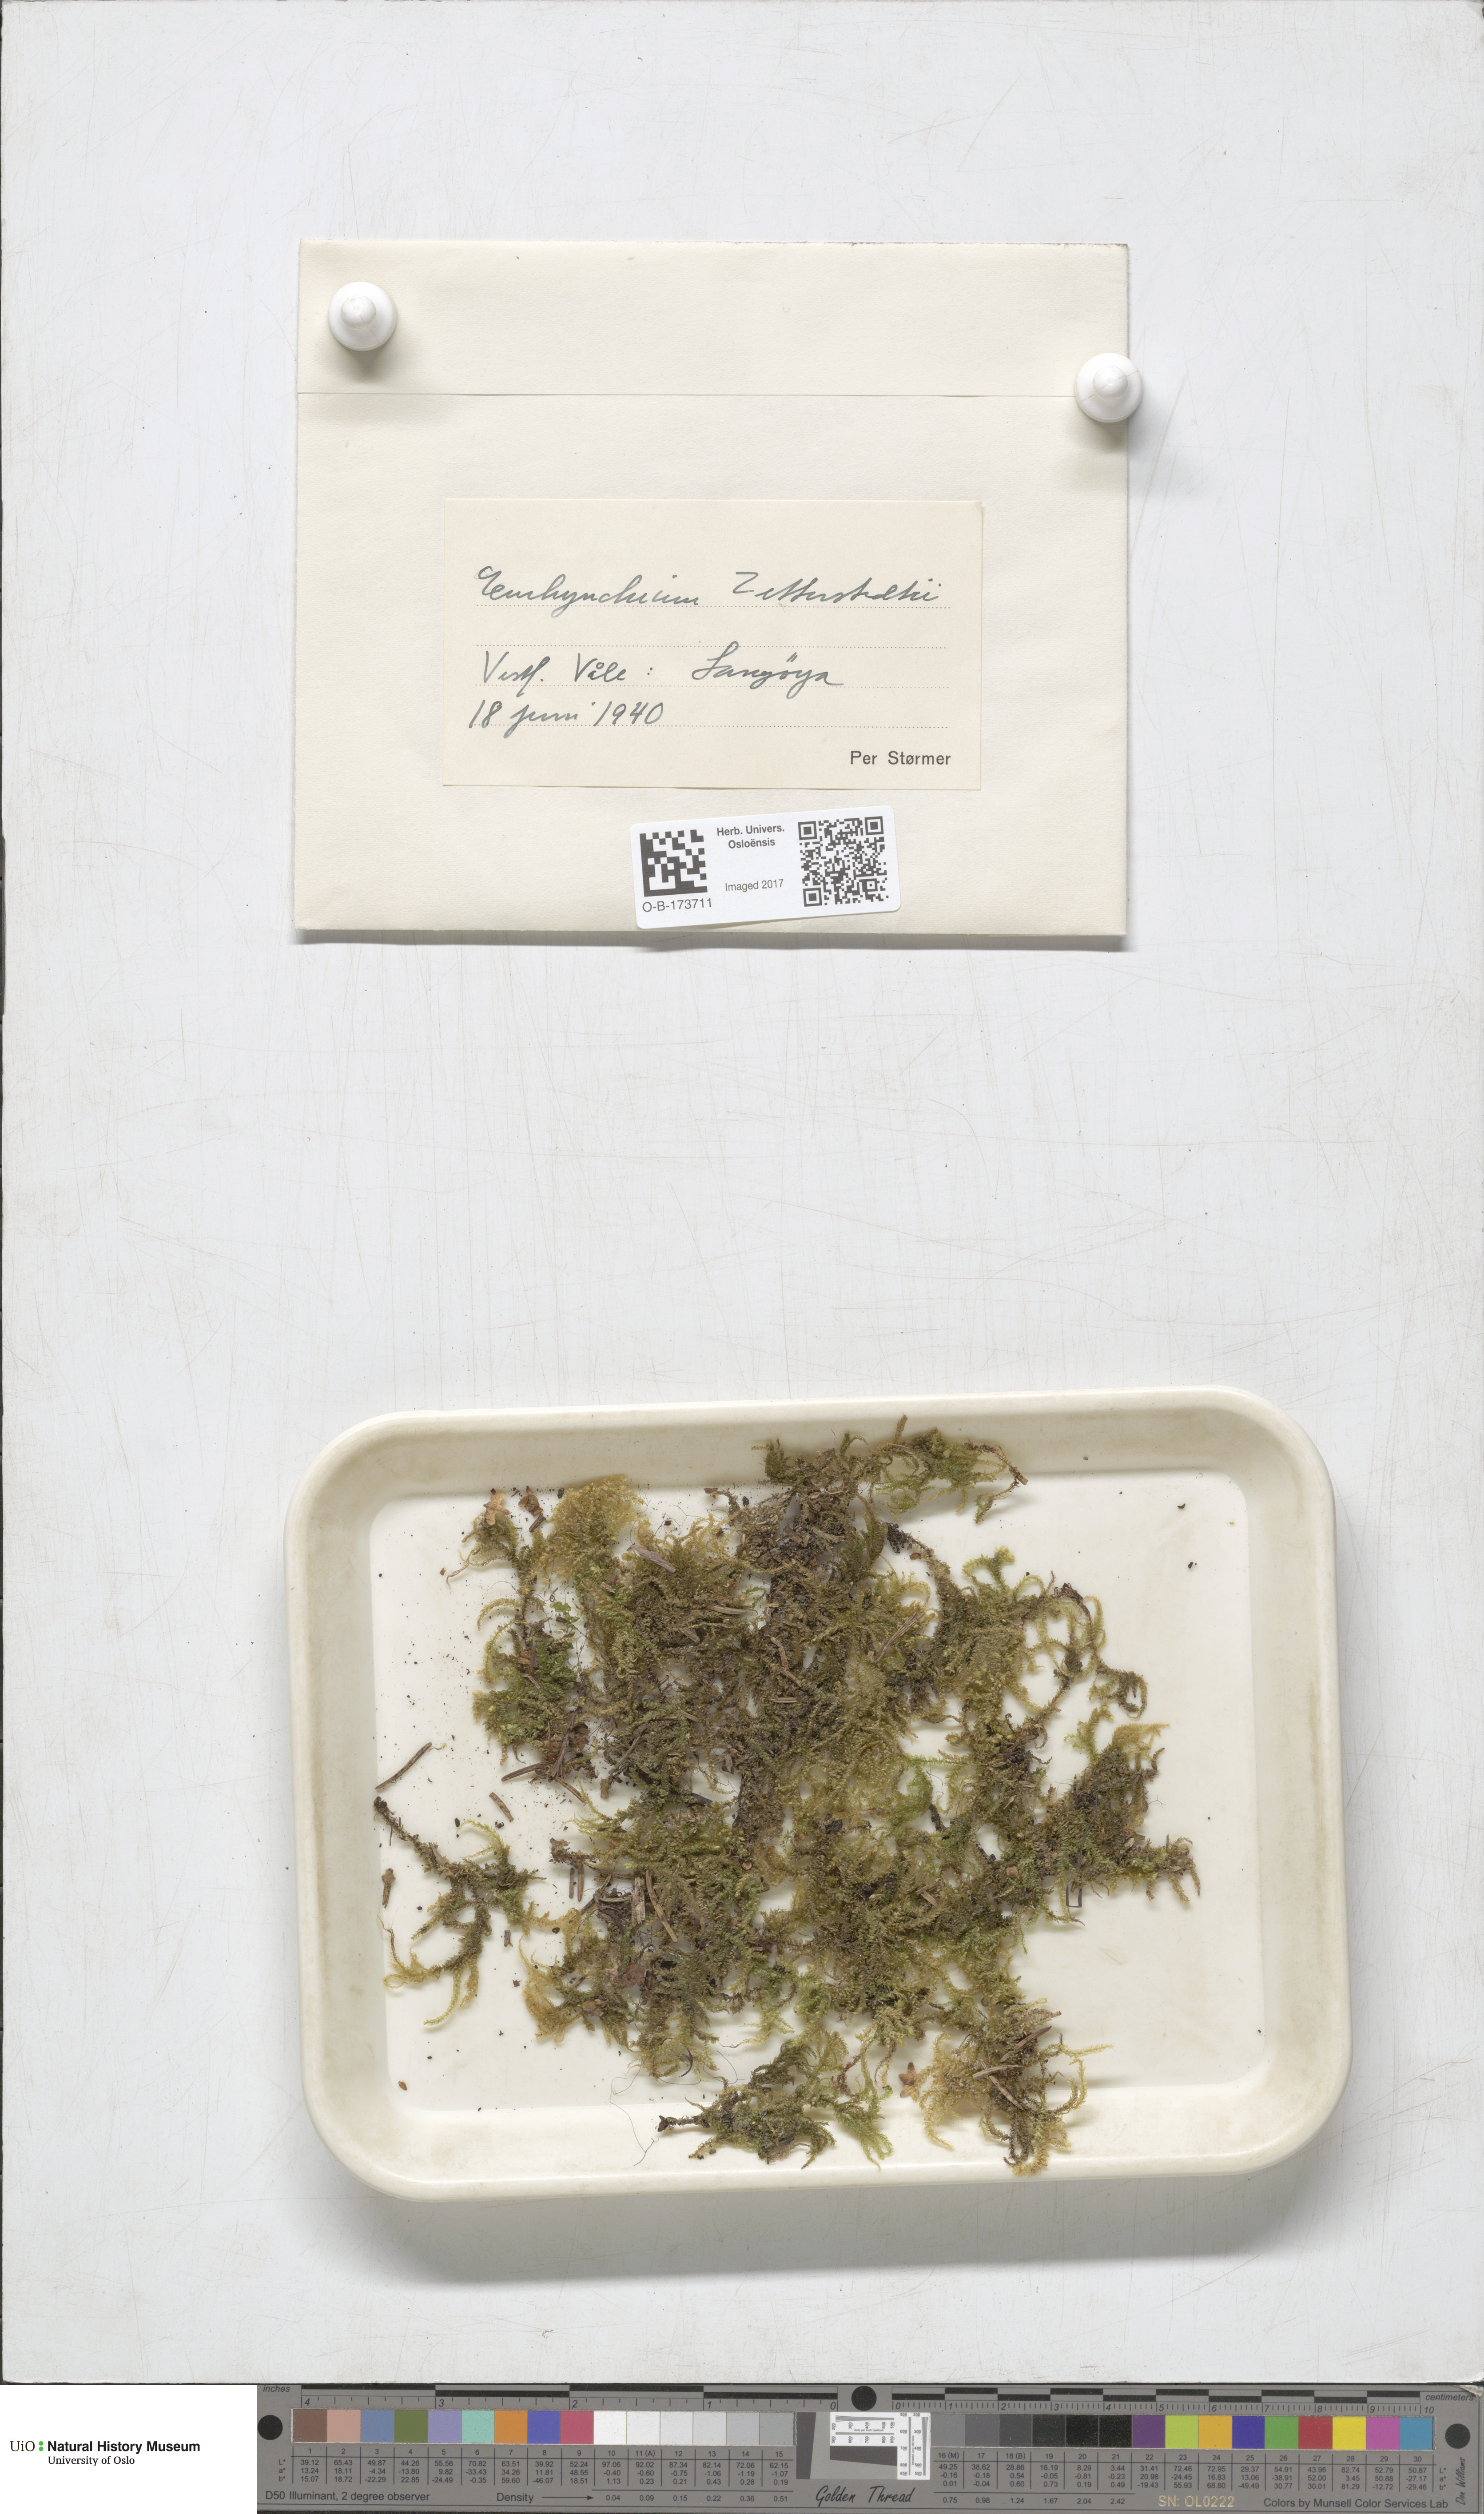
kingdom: Plantae
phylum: Bryophyta
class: Bryopsida
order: Hypnales
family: Brachytheciaceae
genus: Eurhynchium
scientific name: Eurhynchium angustirete
